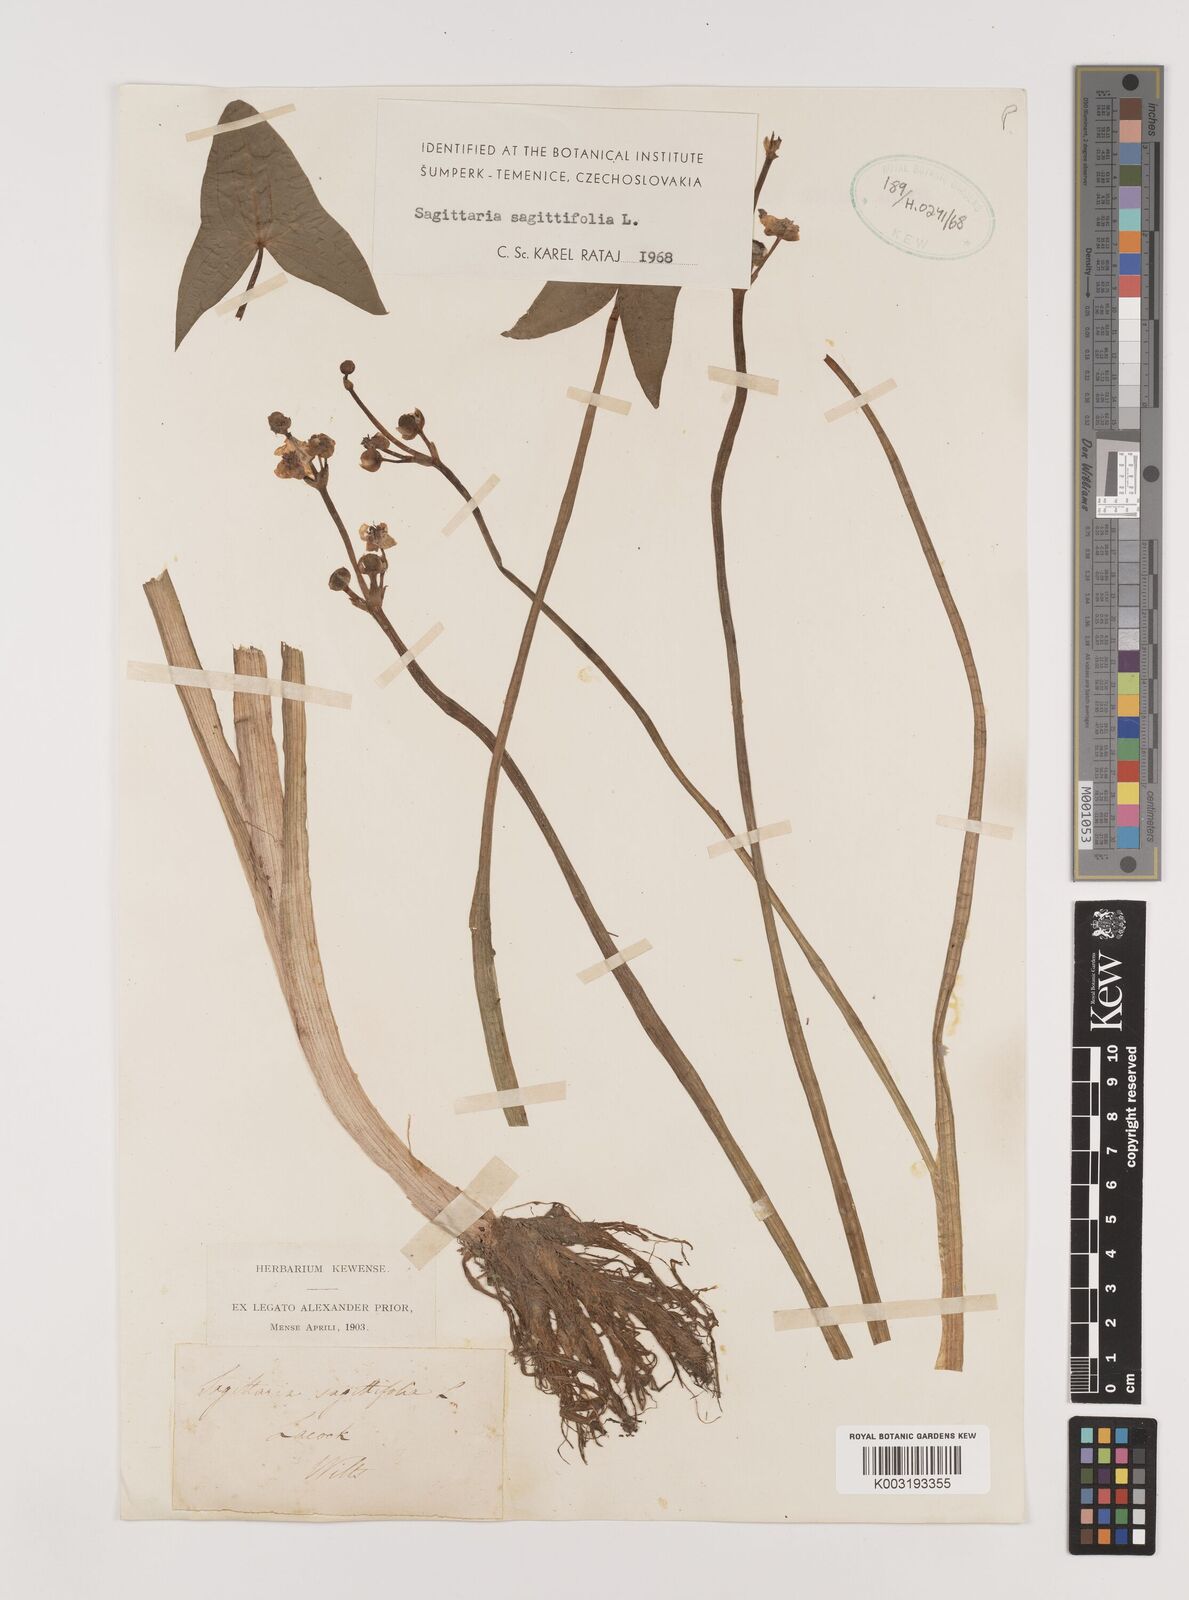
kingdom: Plantae
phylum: Tracheophyta
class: Liliopsida
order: Alismatales
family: Alismataceae
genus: Sagittaria
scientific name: Sagittaria sagittifolia
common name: Arrowhead
